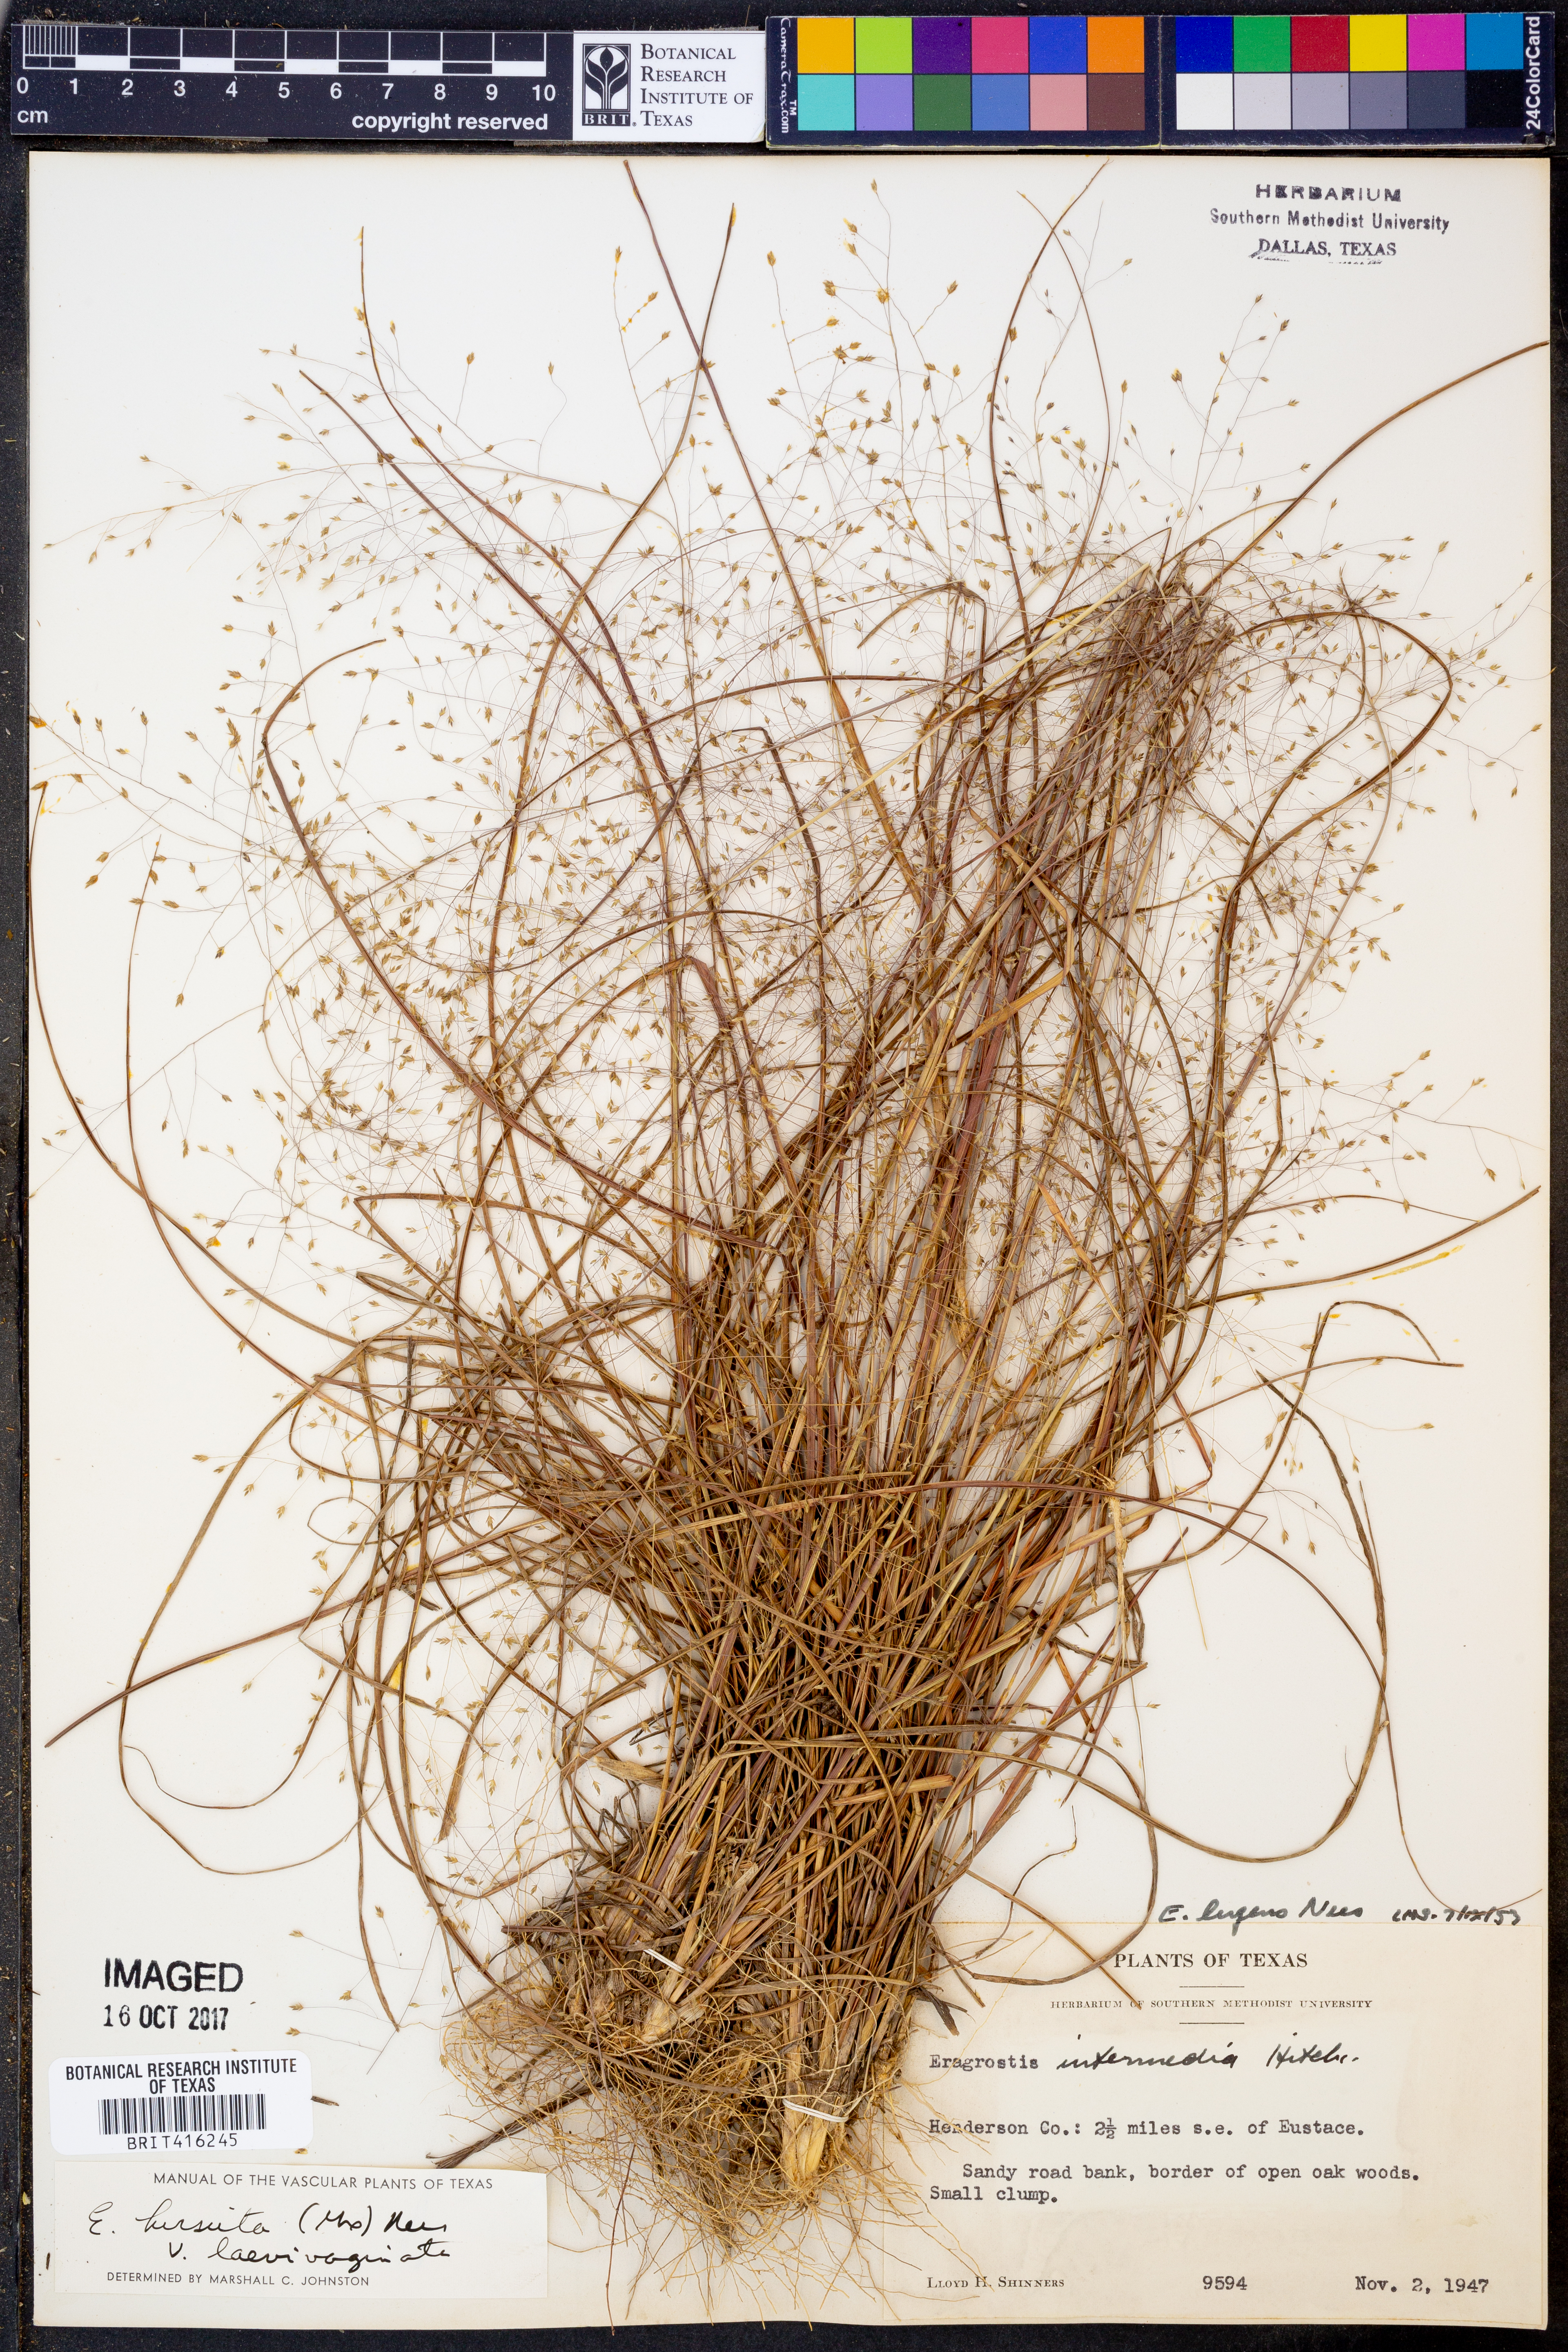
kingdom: Plantae
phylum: Tracheophyta
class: Liliopsida
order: Poales
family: Poaceae
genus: Eragrostis
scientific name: Eragrostis hirsuta
